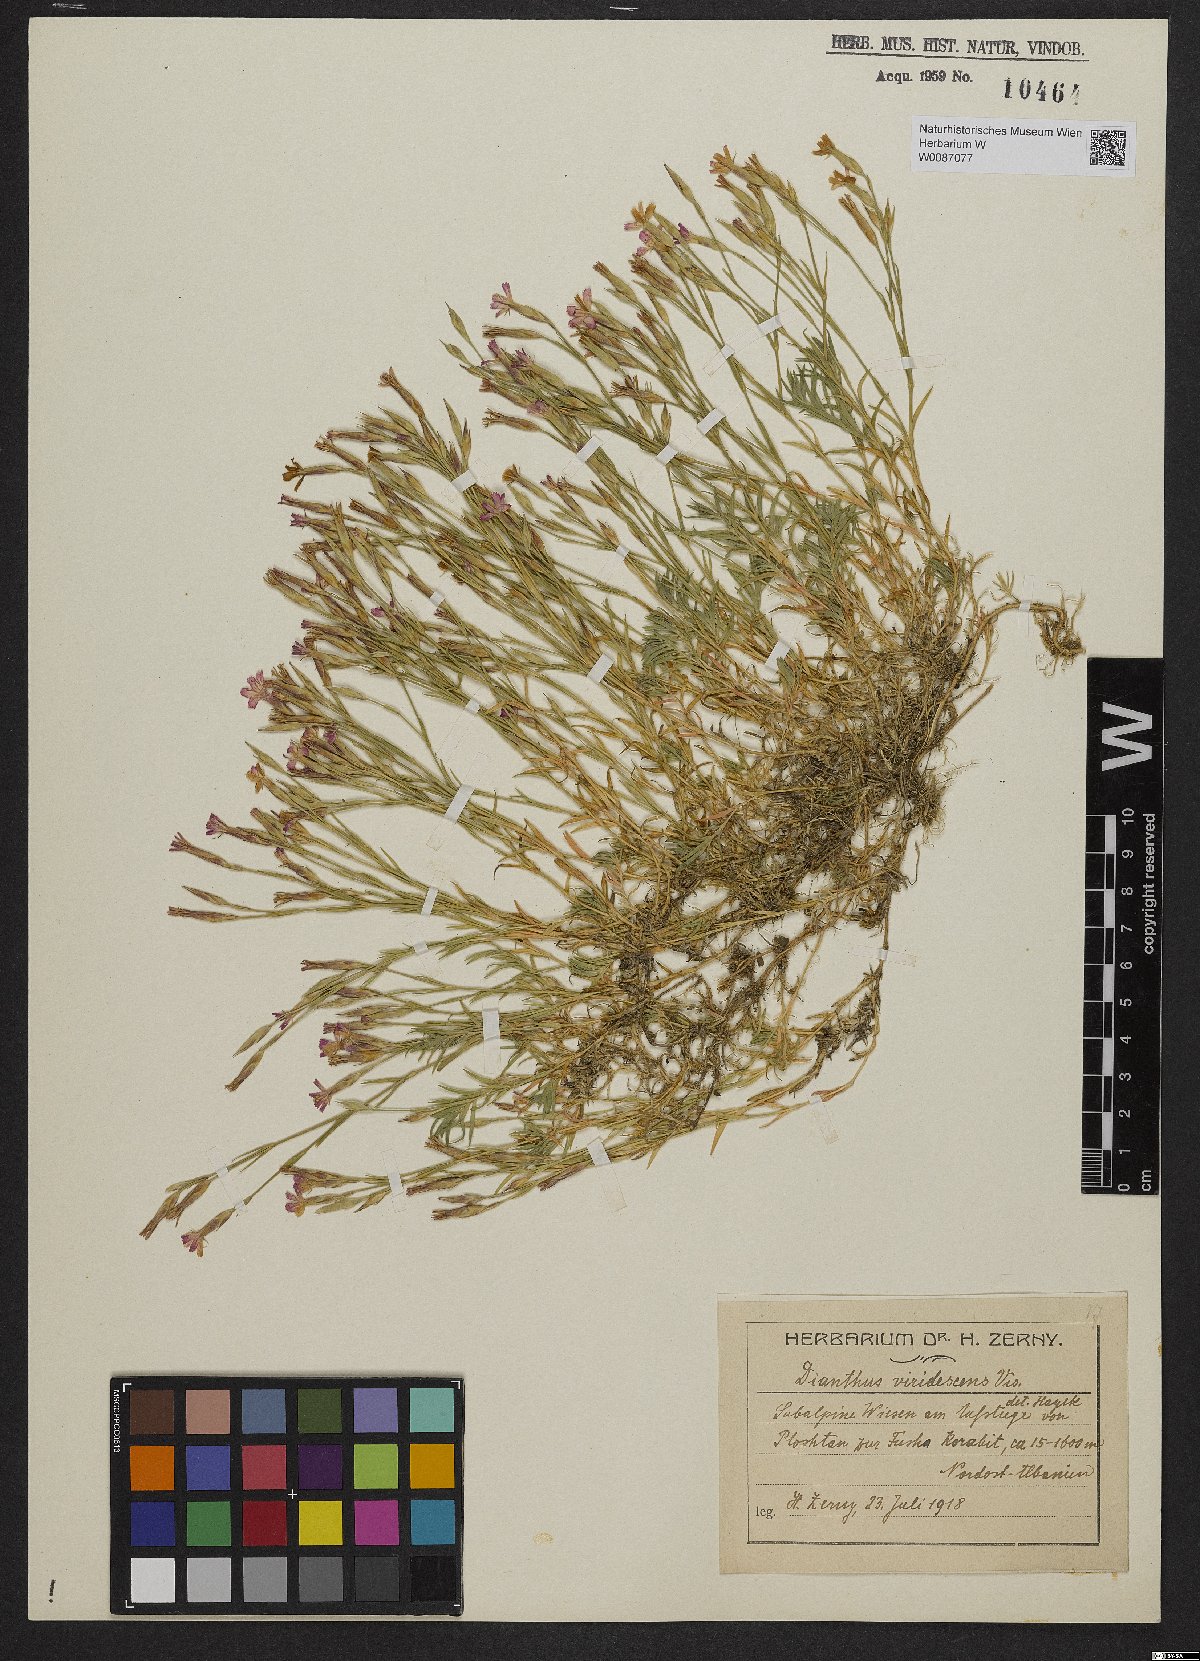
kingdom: Plantae
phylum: Tracheophyta
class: Magnoliopsida
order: Caryophyllales
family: Caryophyllaceae
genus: Dianthus
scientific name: Dianthus viridescens
